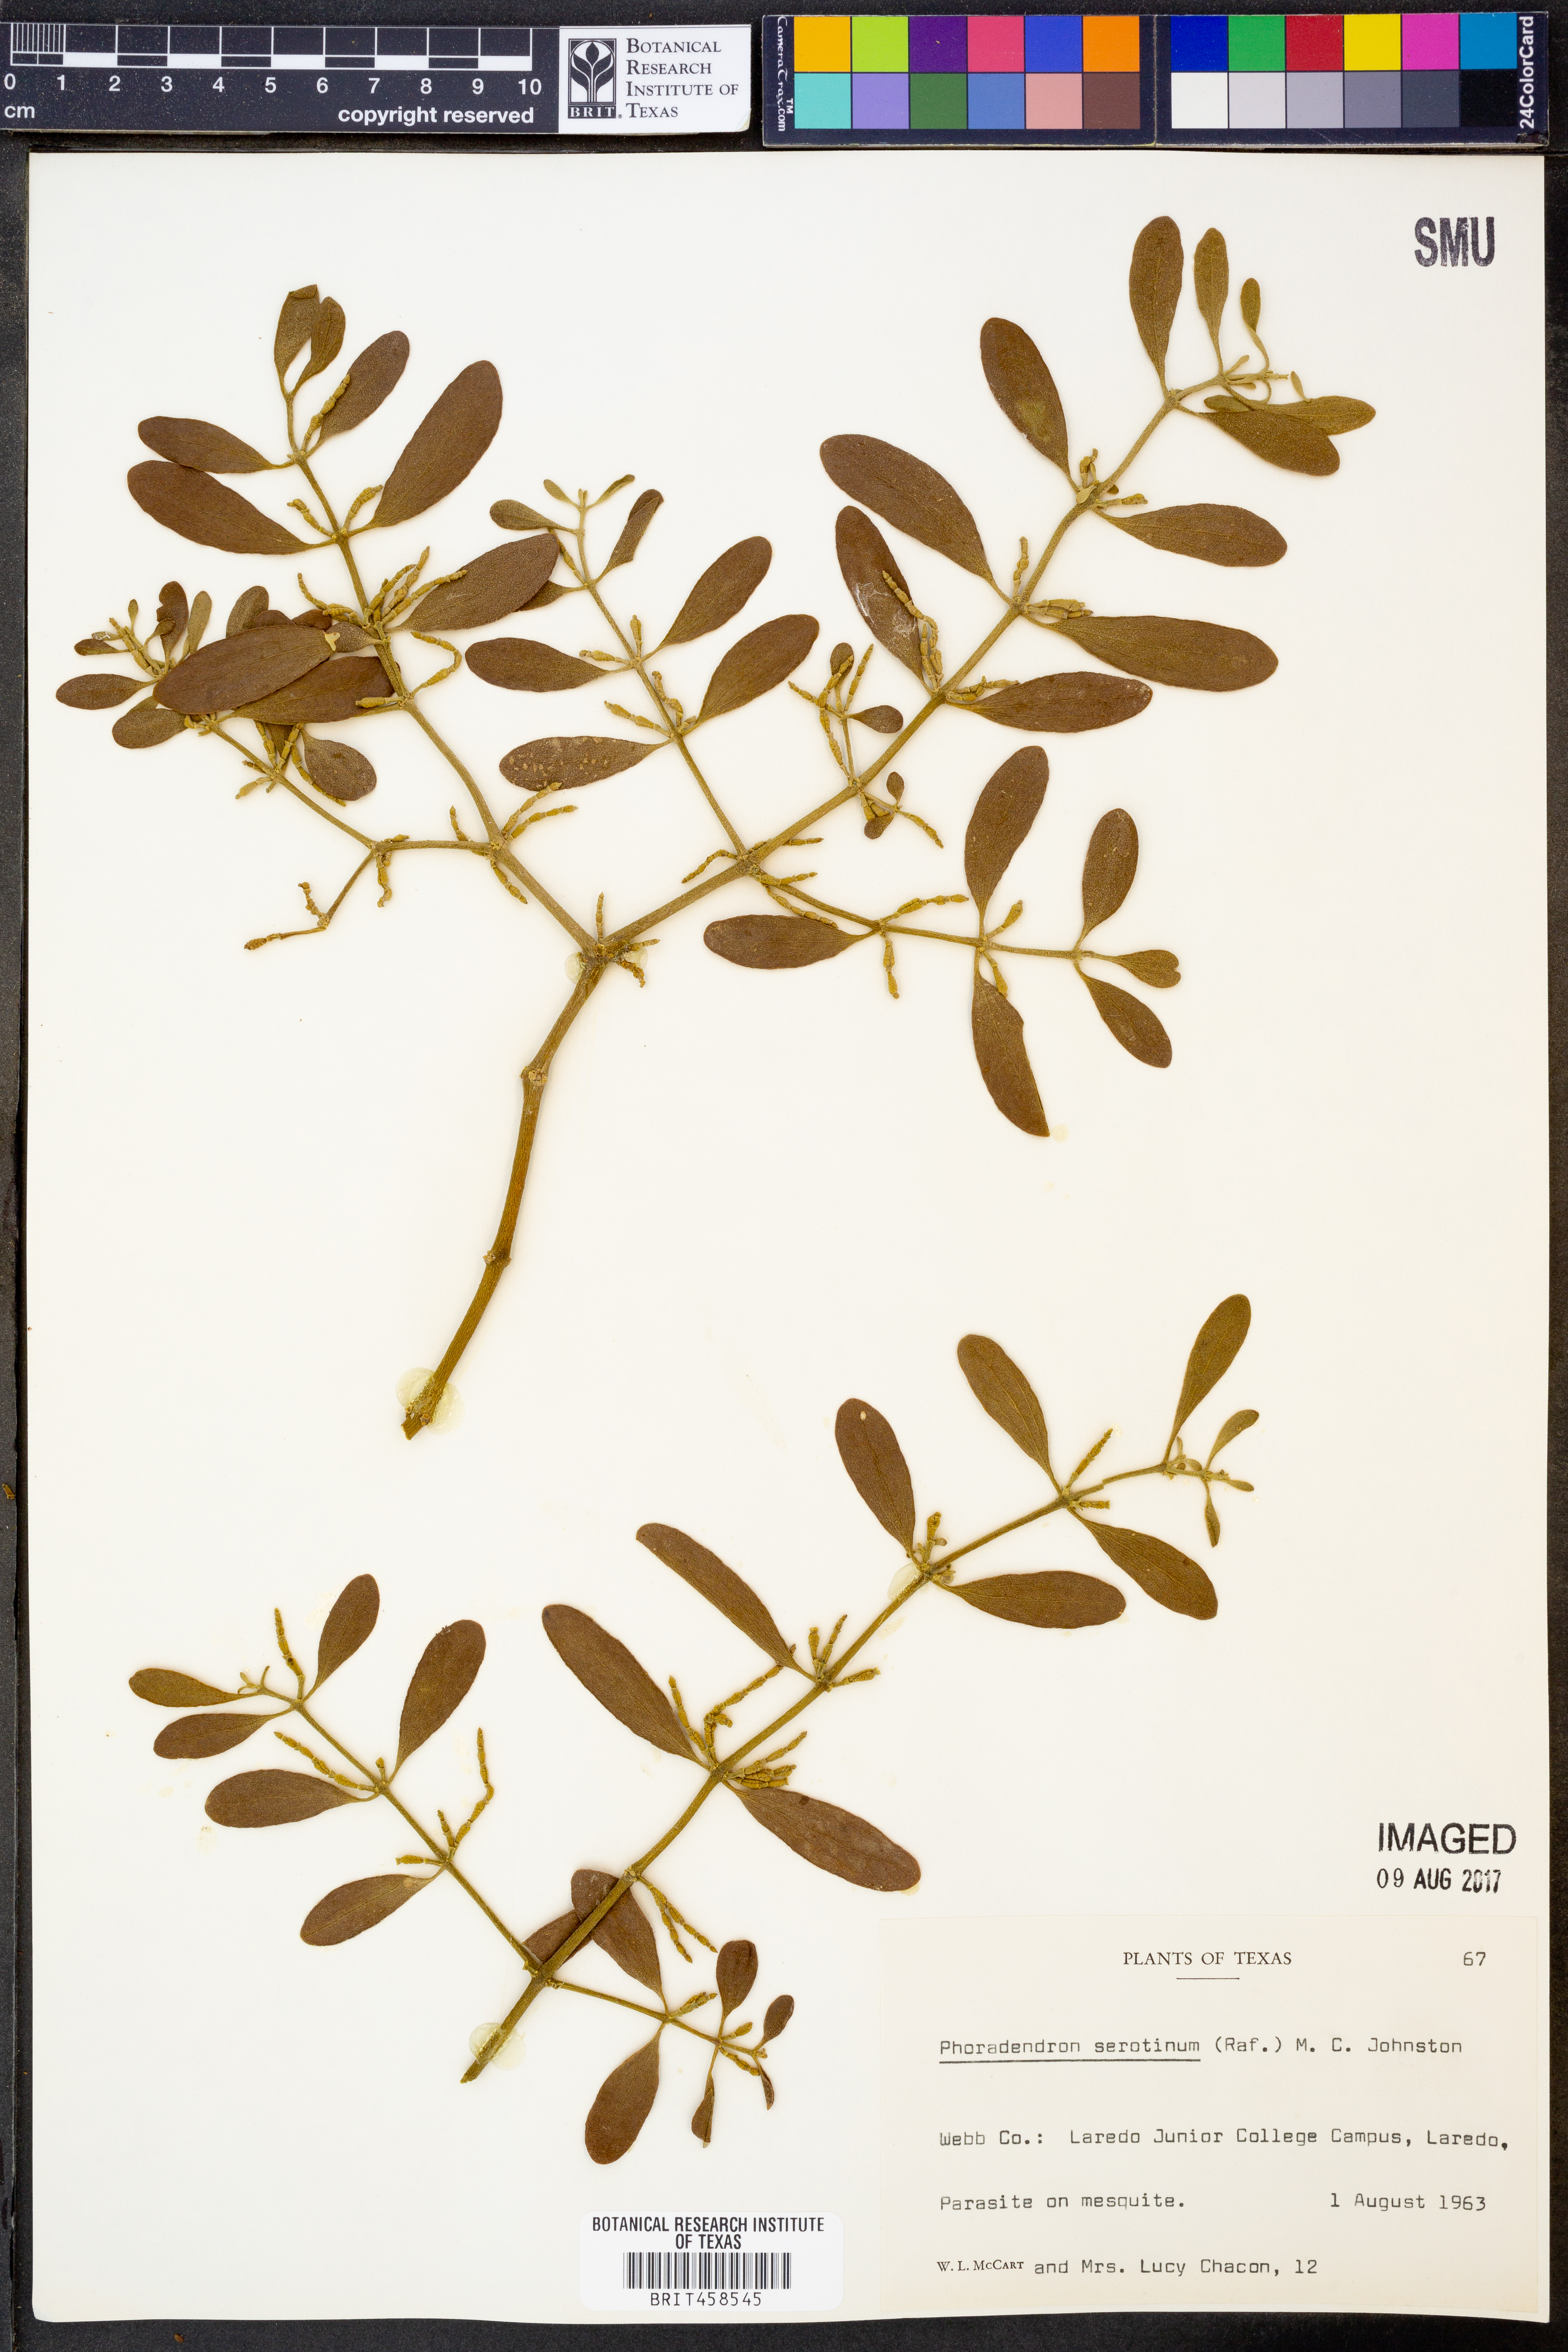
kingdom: Plantae
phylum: Tracheophyta
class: Magnoliopsida
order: Santalales
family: Viscaceae
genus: Phoradendron
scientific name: Phoradendron leucarpum
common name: Pacific mistletoe
